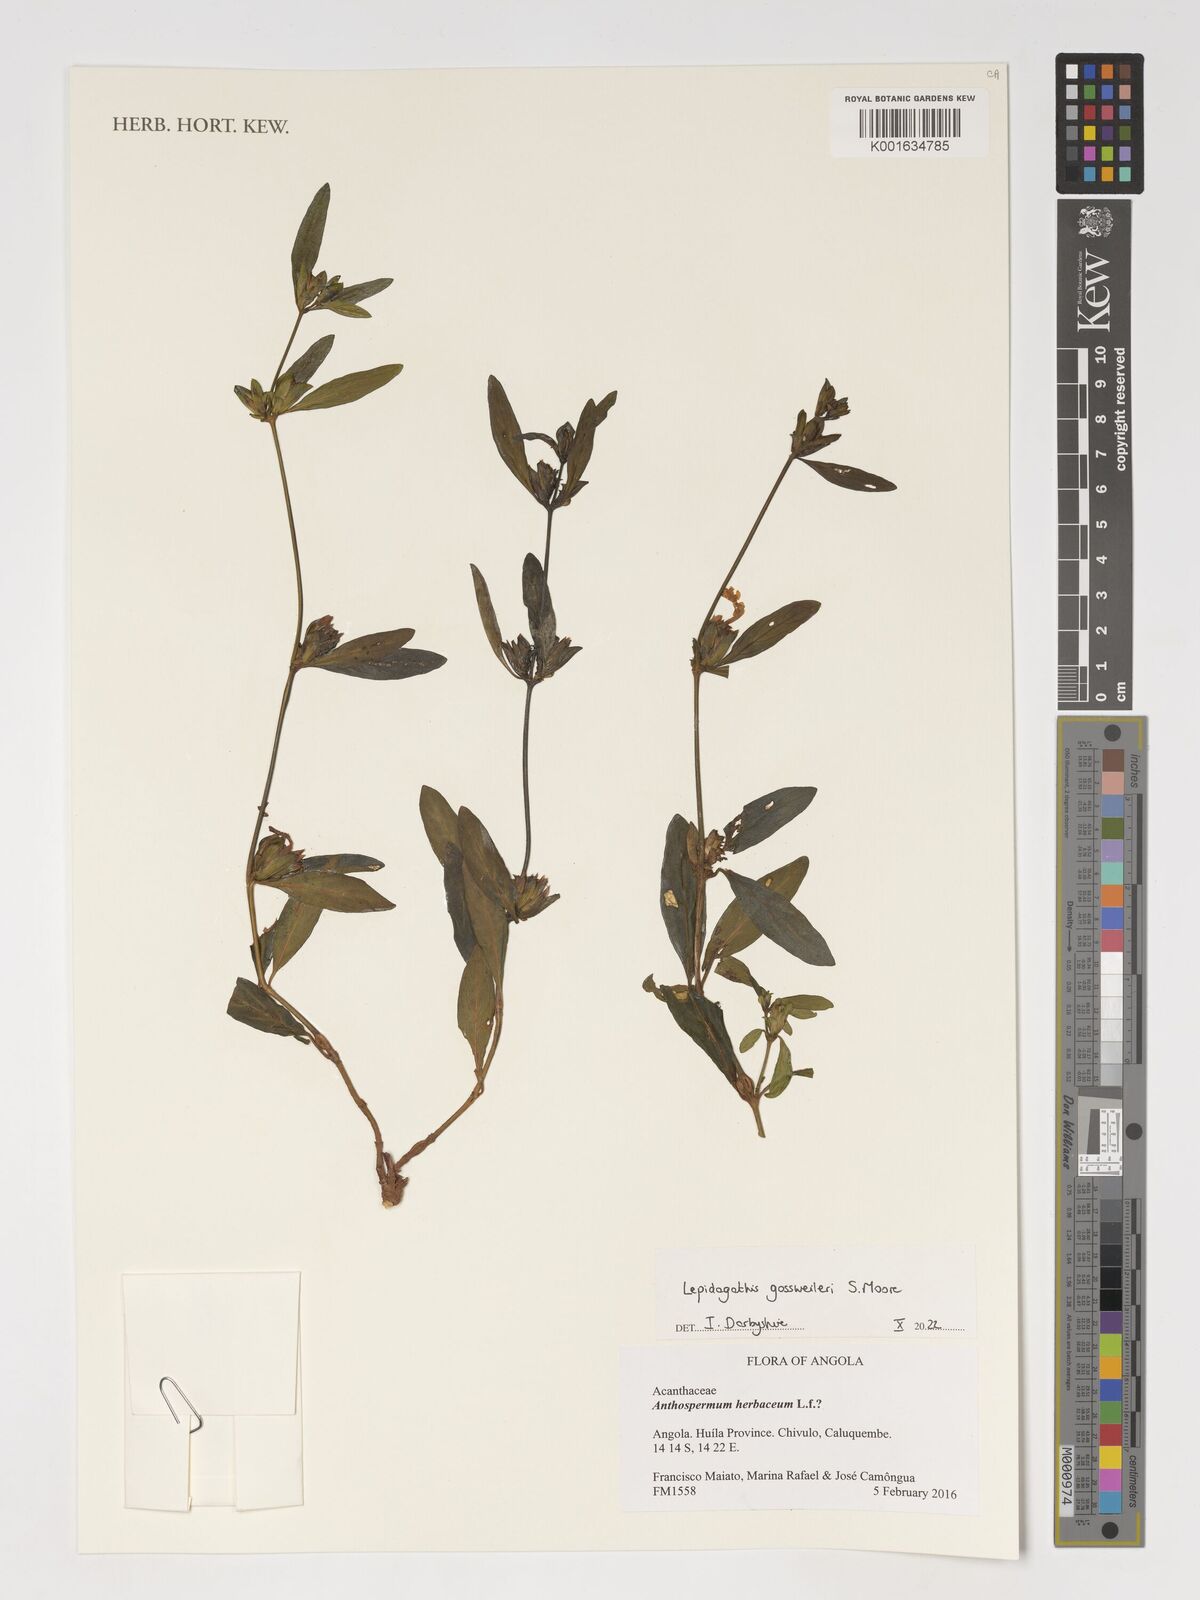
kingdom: Plantae
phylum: Tracheophyta
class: Magnoliopsida
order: Lamiales
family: Acanthaceae
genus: Lepidagathis
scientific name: Lepidagathis gossweileri
